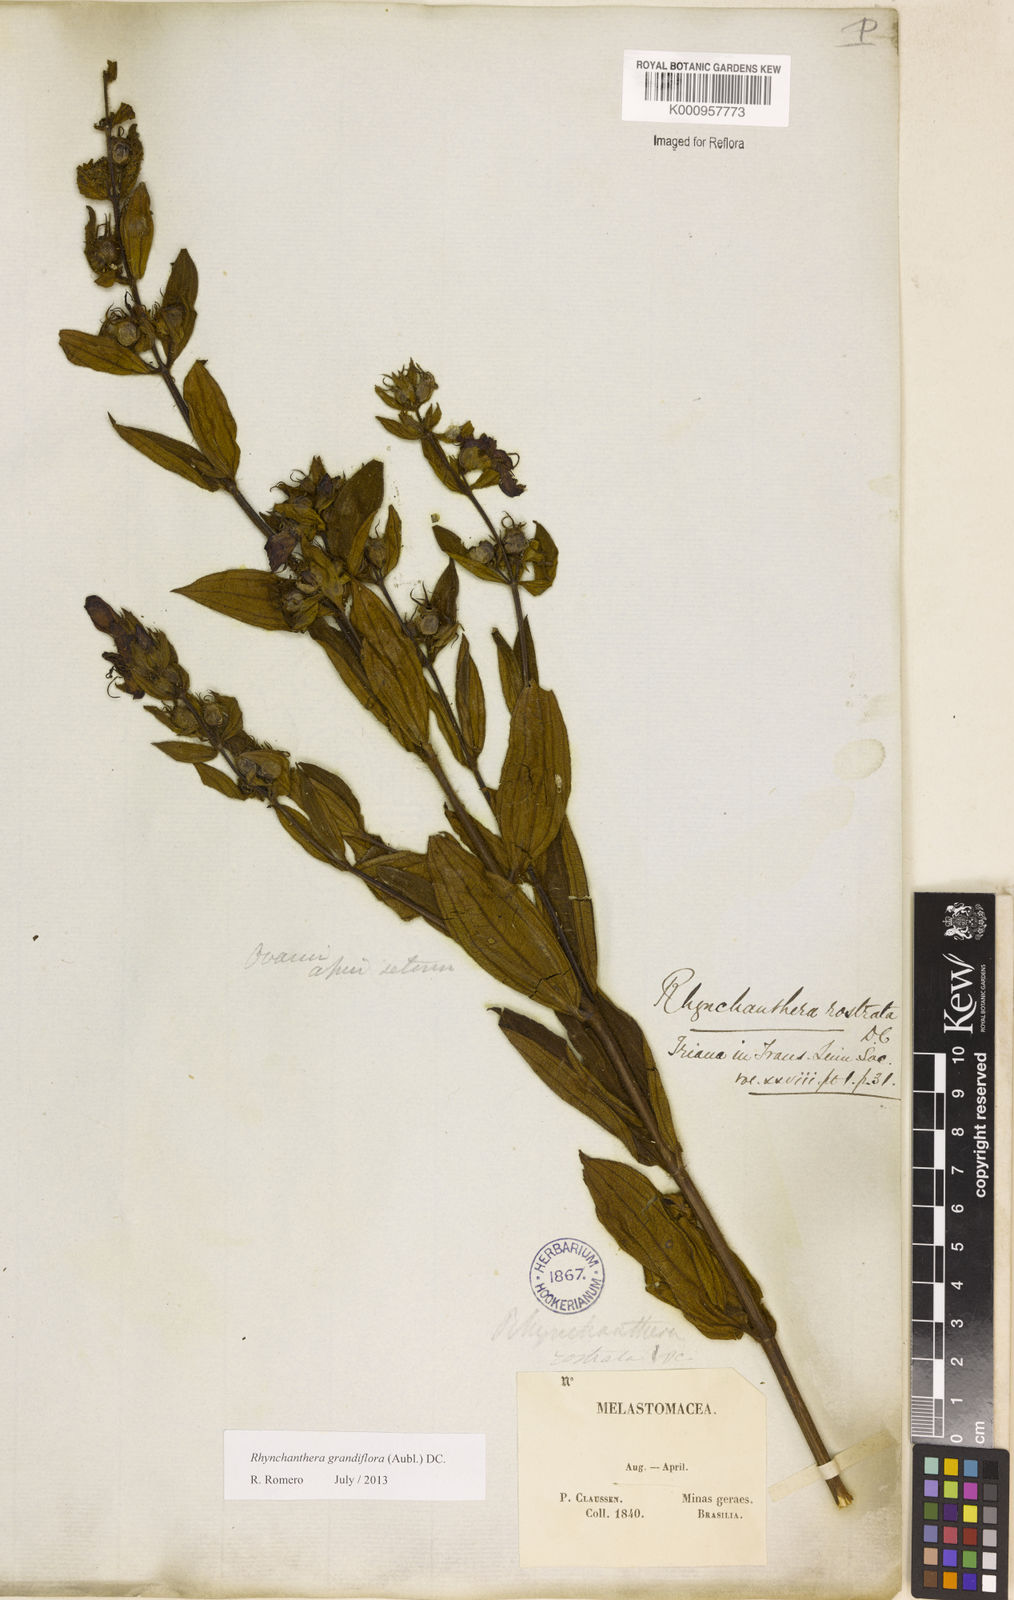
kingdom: Plantae
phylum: Tracheophyta
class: Magnoliopsida
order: Myrtales
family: Melastomataceae
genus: Rhynchanthera
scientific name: Rhynchanthera grandiflora
